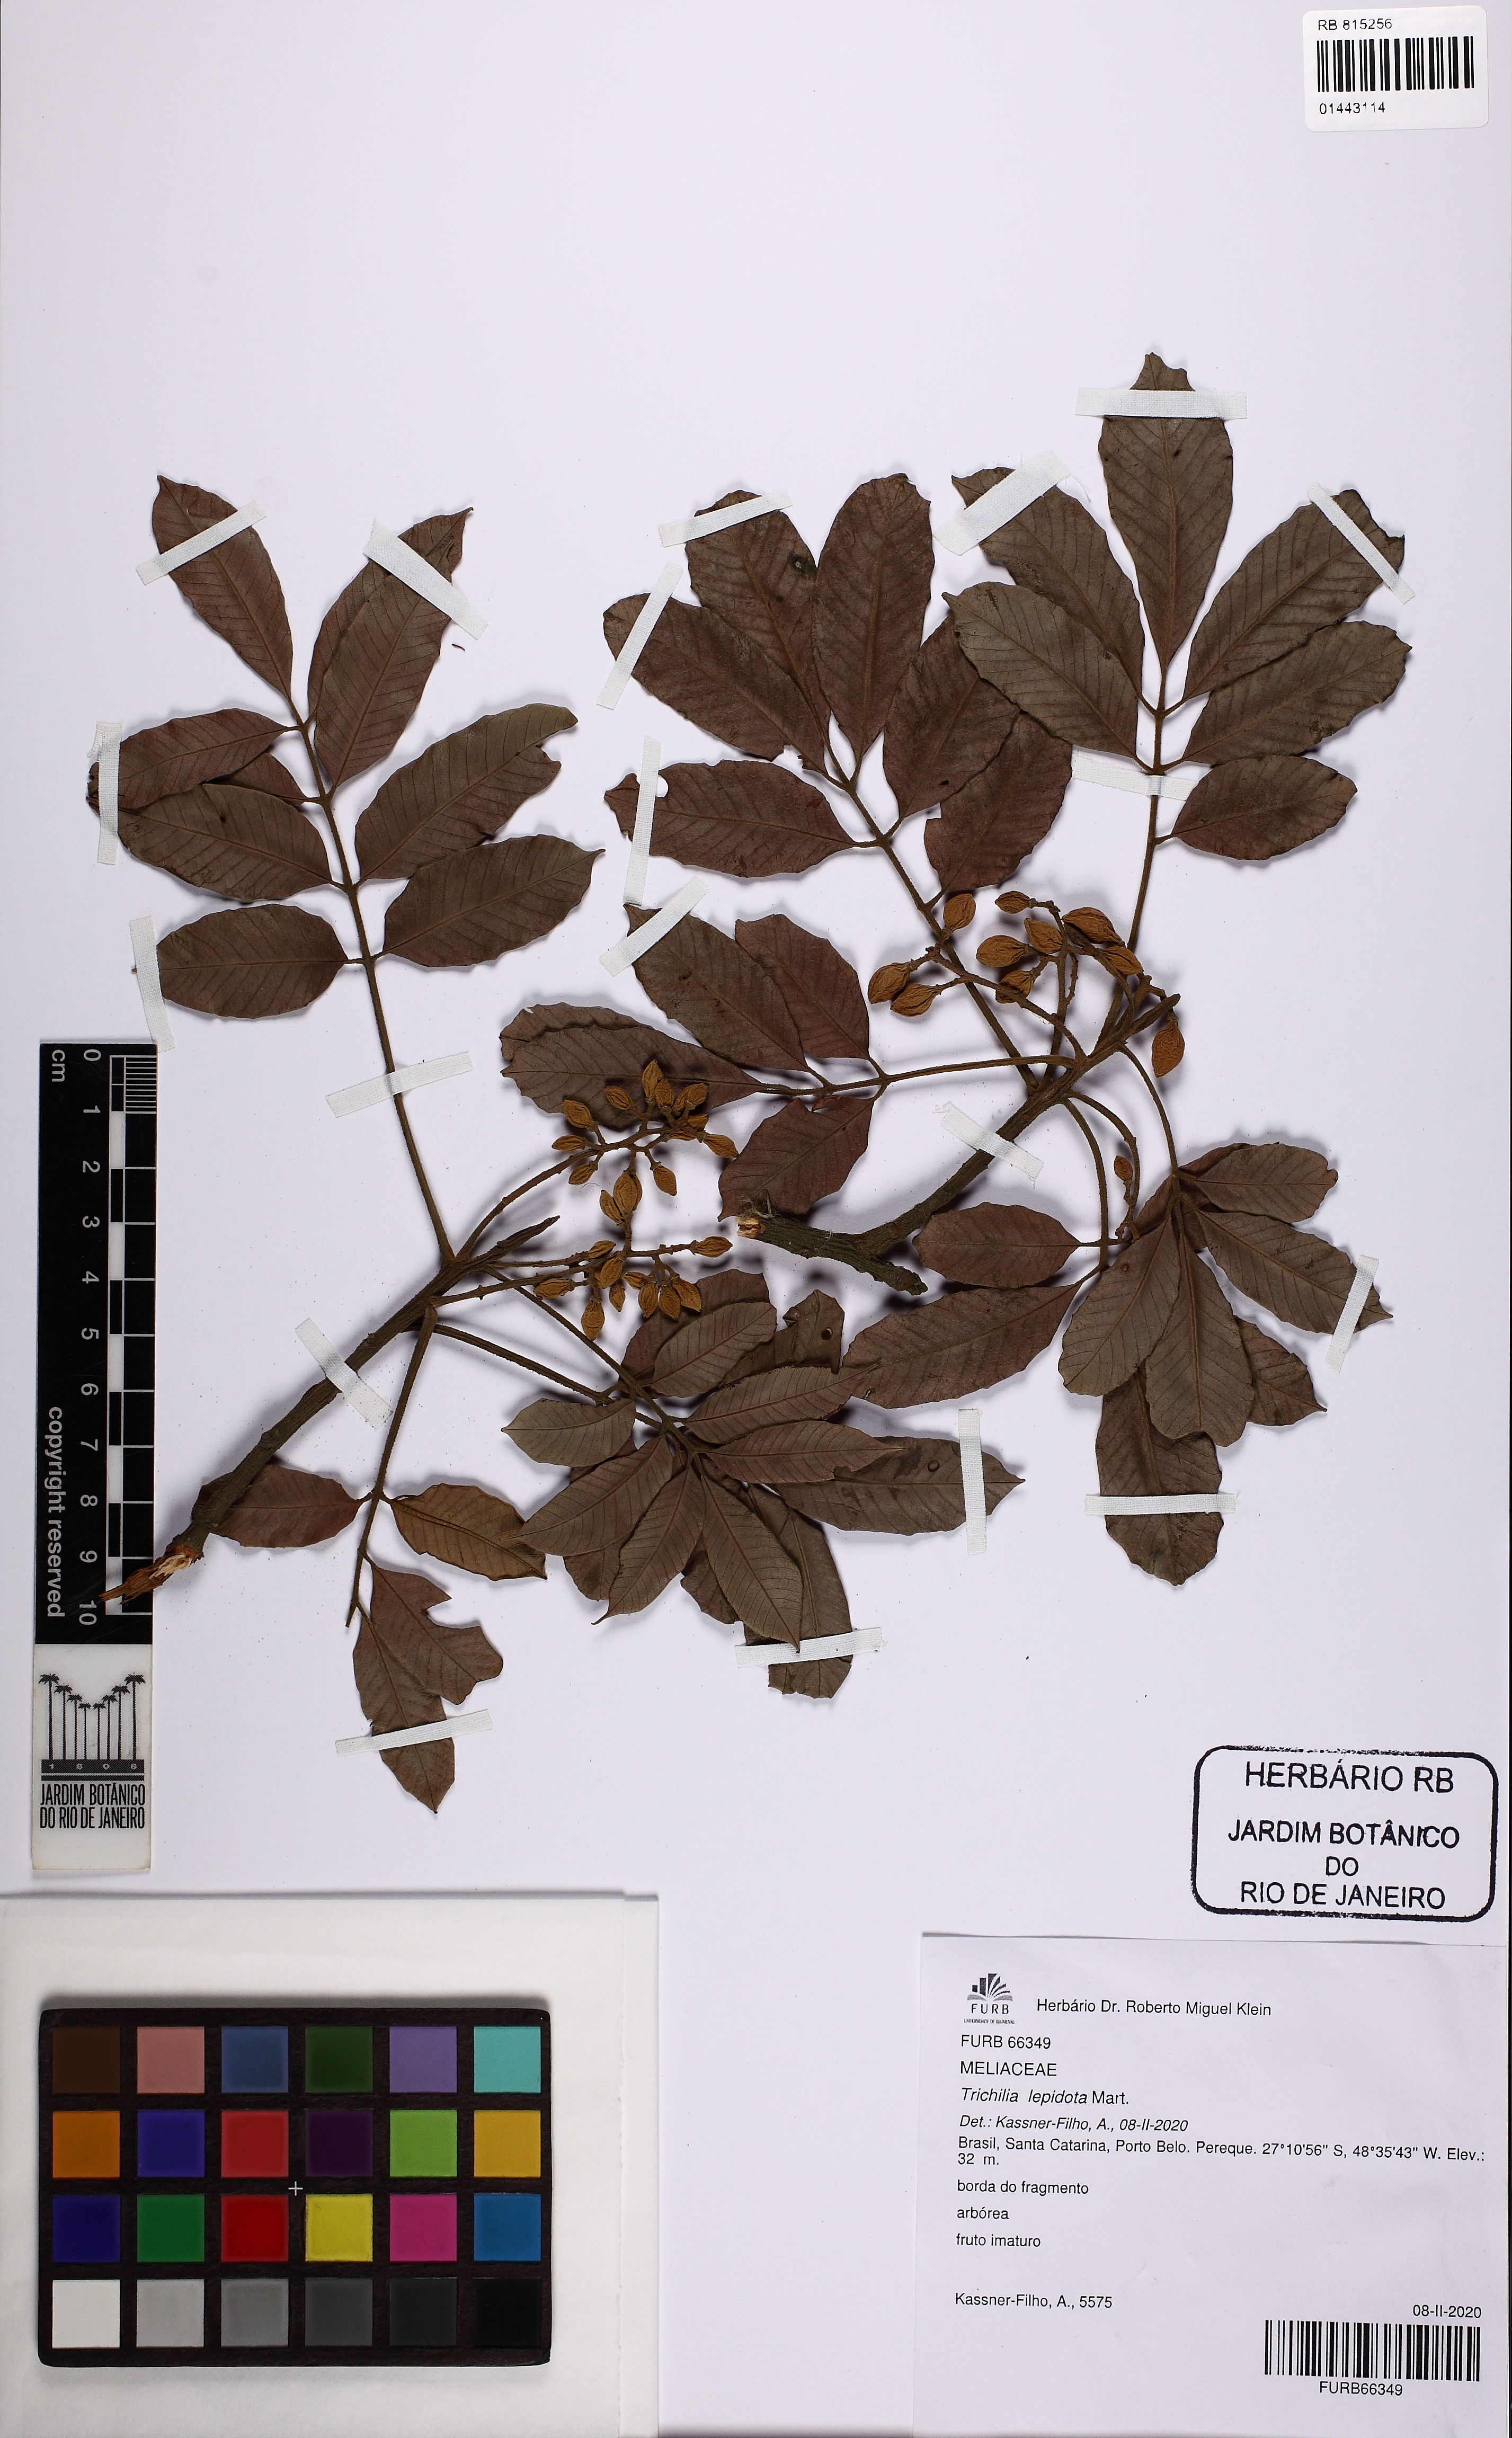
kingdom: Plantae
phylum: Tracheophyta
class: Magnoliopsida
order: Sapindales
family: Meliaceae
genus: Trichilia
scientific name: Trichilia lepidota
